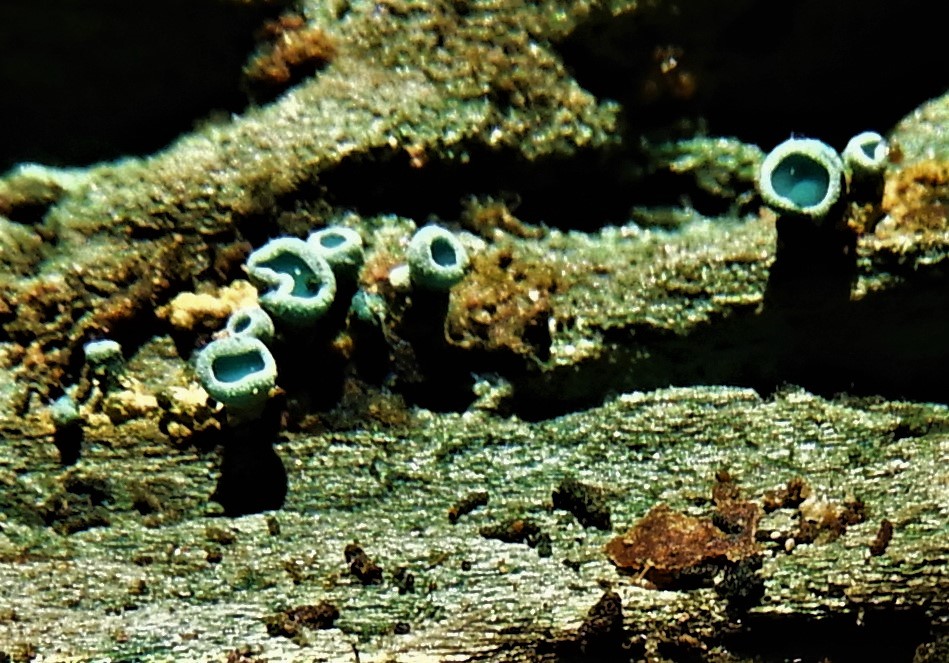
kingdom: Fungi
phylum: Ascomycota
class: Leotiomycetes
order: Helotiales
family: Chlorociboriaceae
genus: Chlorociboria
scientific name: Chlorociboria aeruginascens
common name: almindelig grønskive
